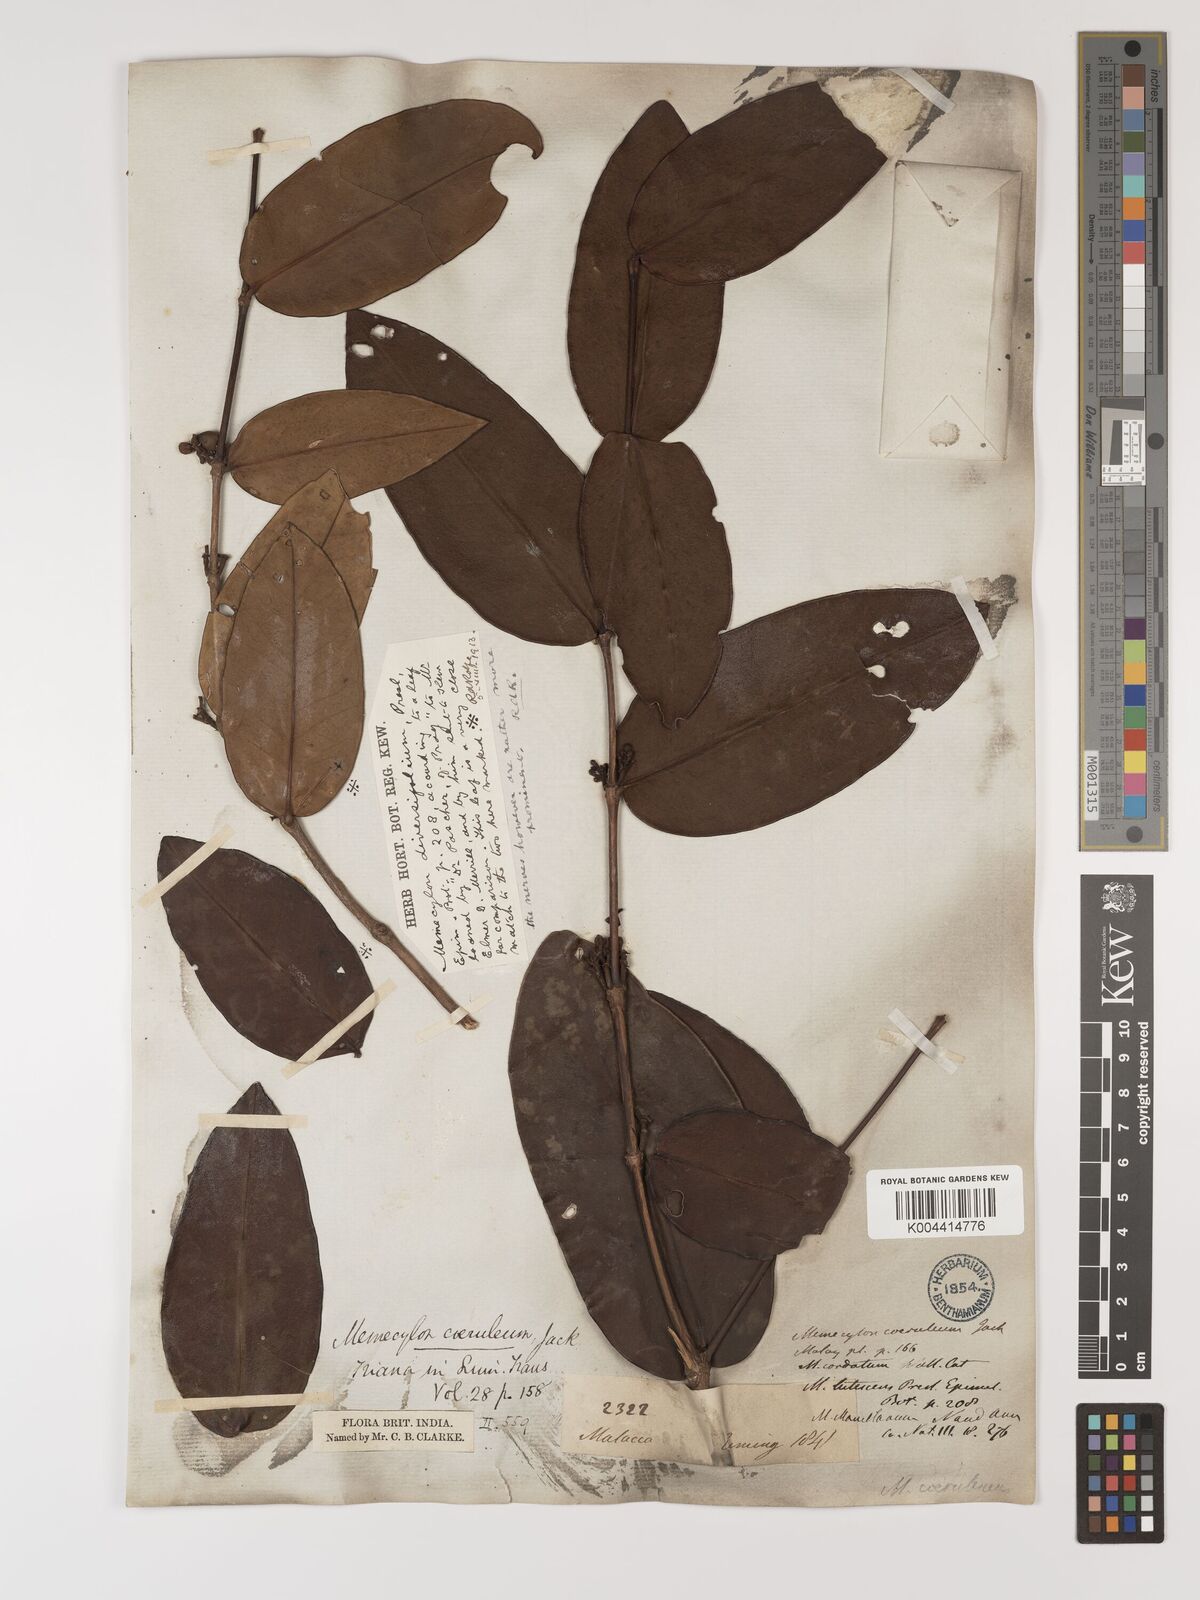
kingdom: Plantae
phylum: Tracheophyta
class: Magnoliopsida
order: Myrtales
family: Melastomataceae
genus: Memecylon
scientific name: Memecylon
